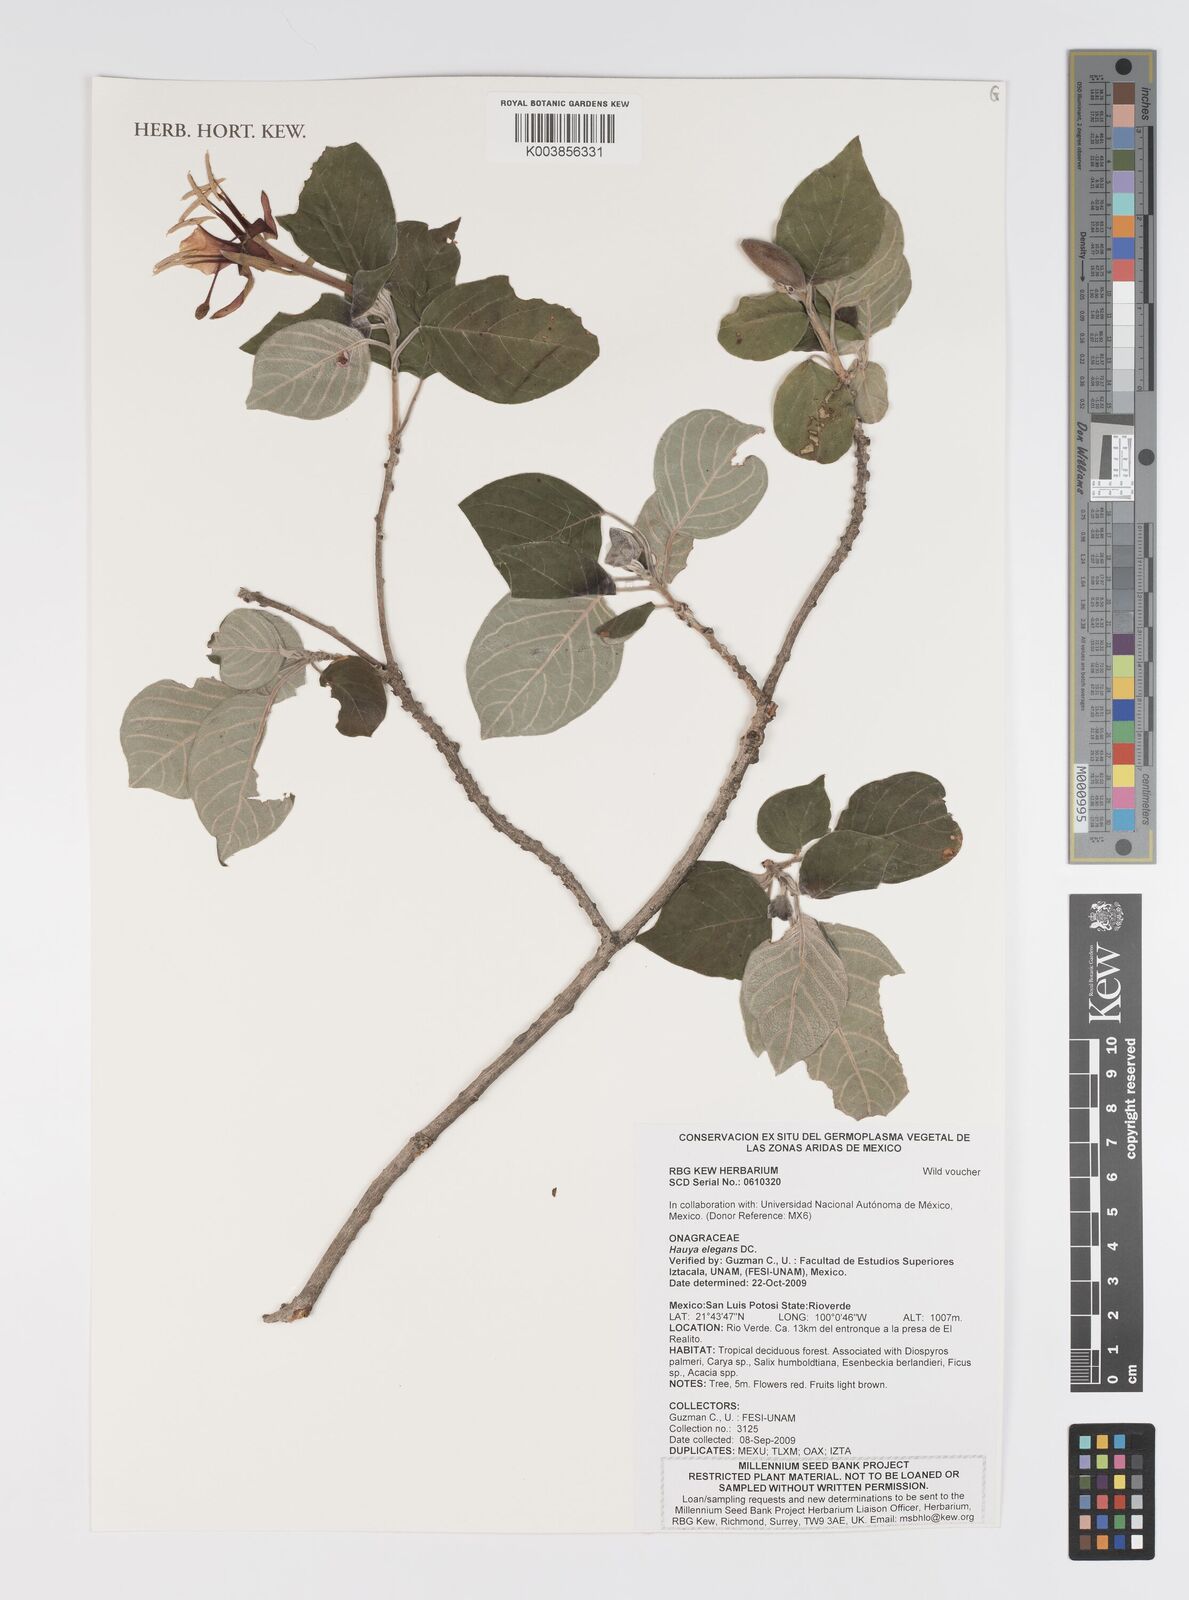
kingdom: Plantae
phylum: Tracheophyta
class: Magnoliopsida
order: Myrtales
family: Onagraceae
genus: Hauya
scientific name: Hauya elegans
